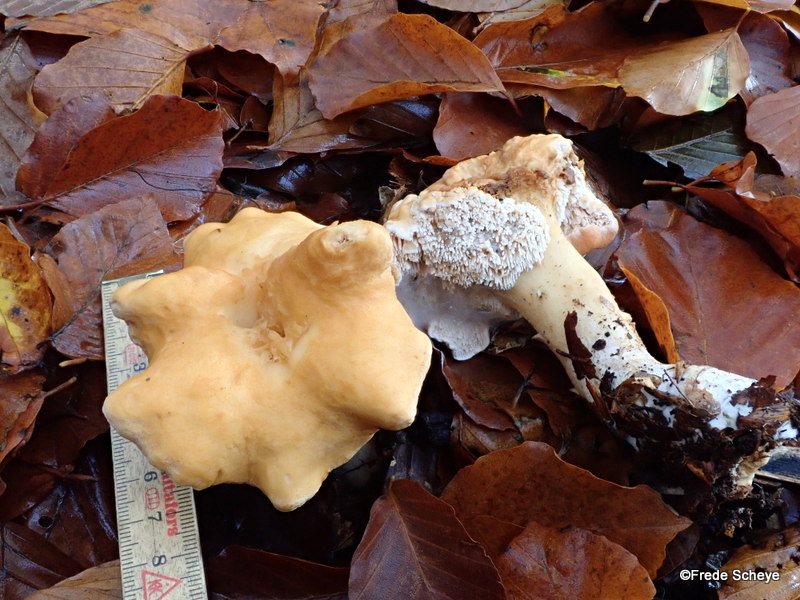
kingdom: Fungi
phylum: Basidiomycota
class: Agaricomycetes
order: Cantharellales
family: Hydnaceae
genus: Hydnum
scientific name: Hydnum repandum
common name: almindelig pigsvamp
